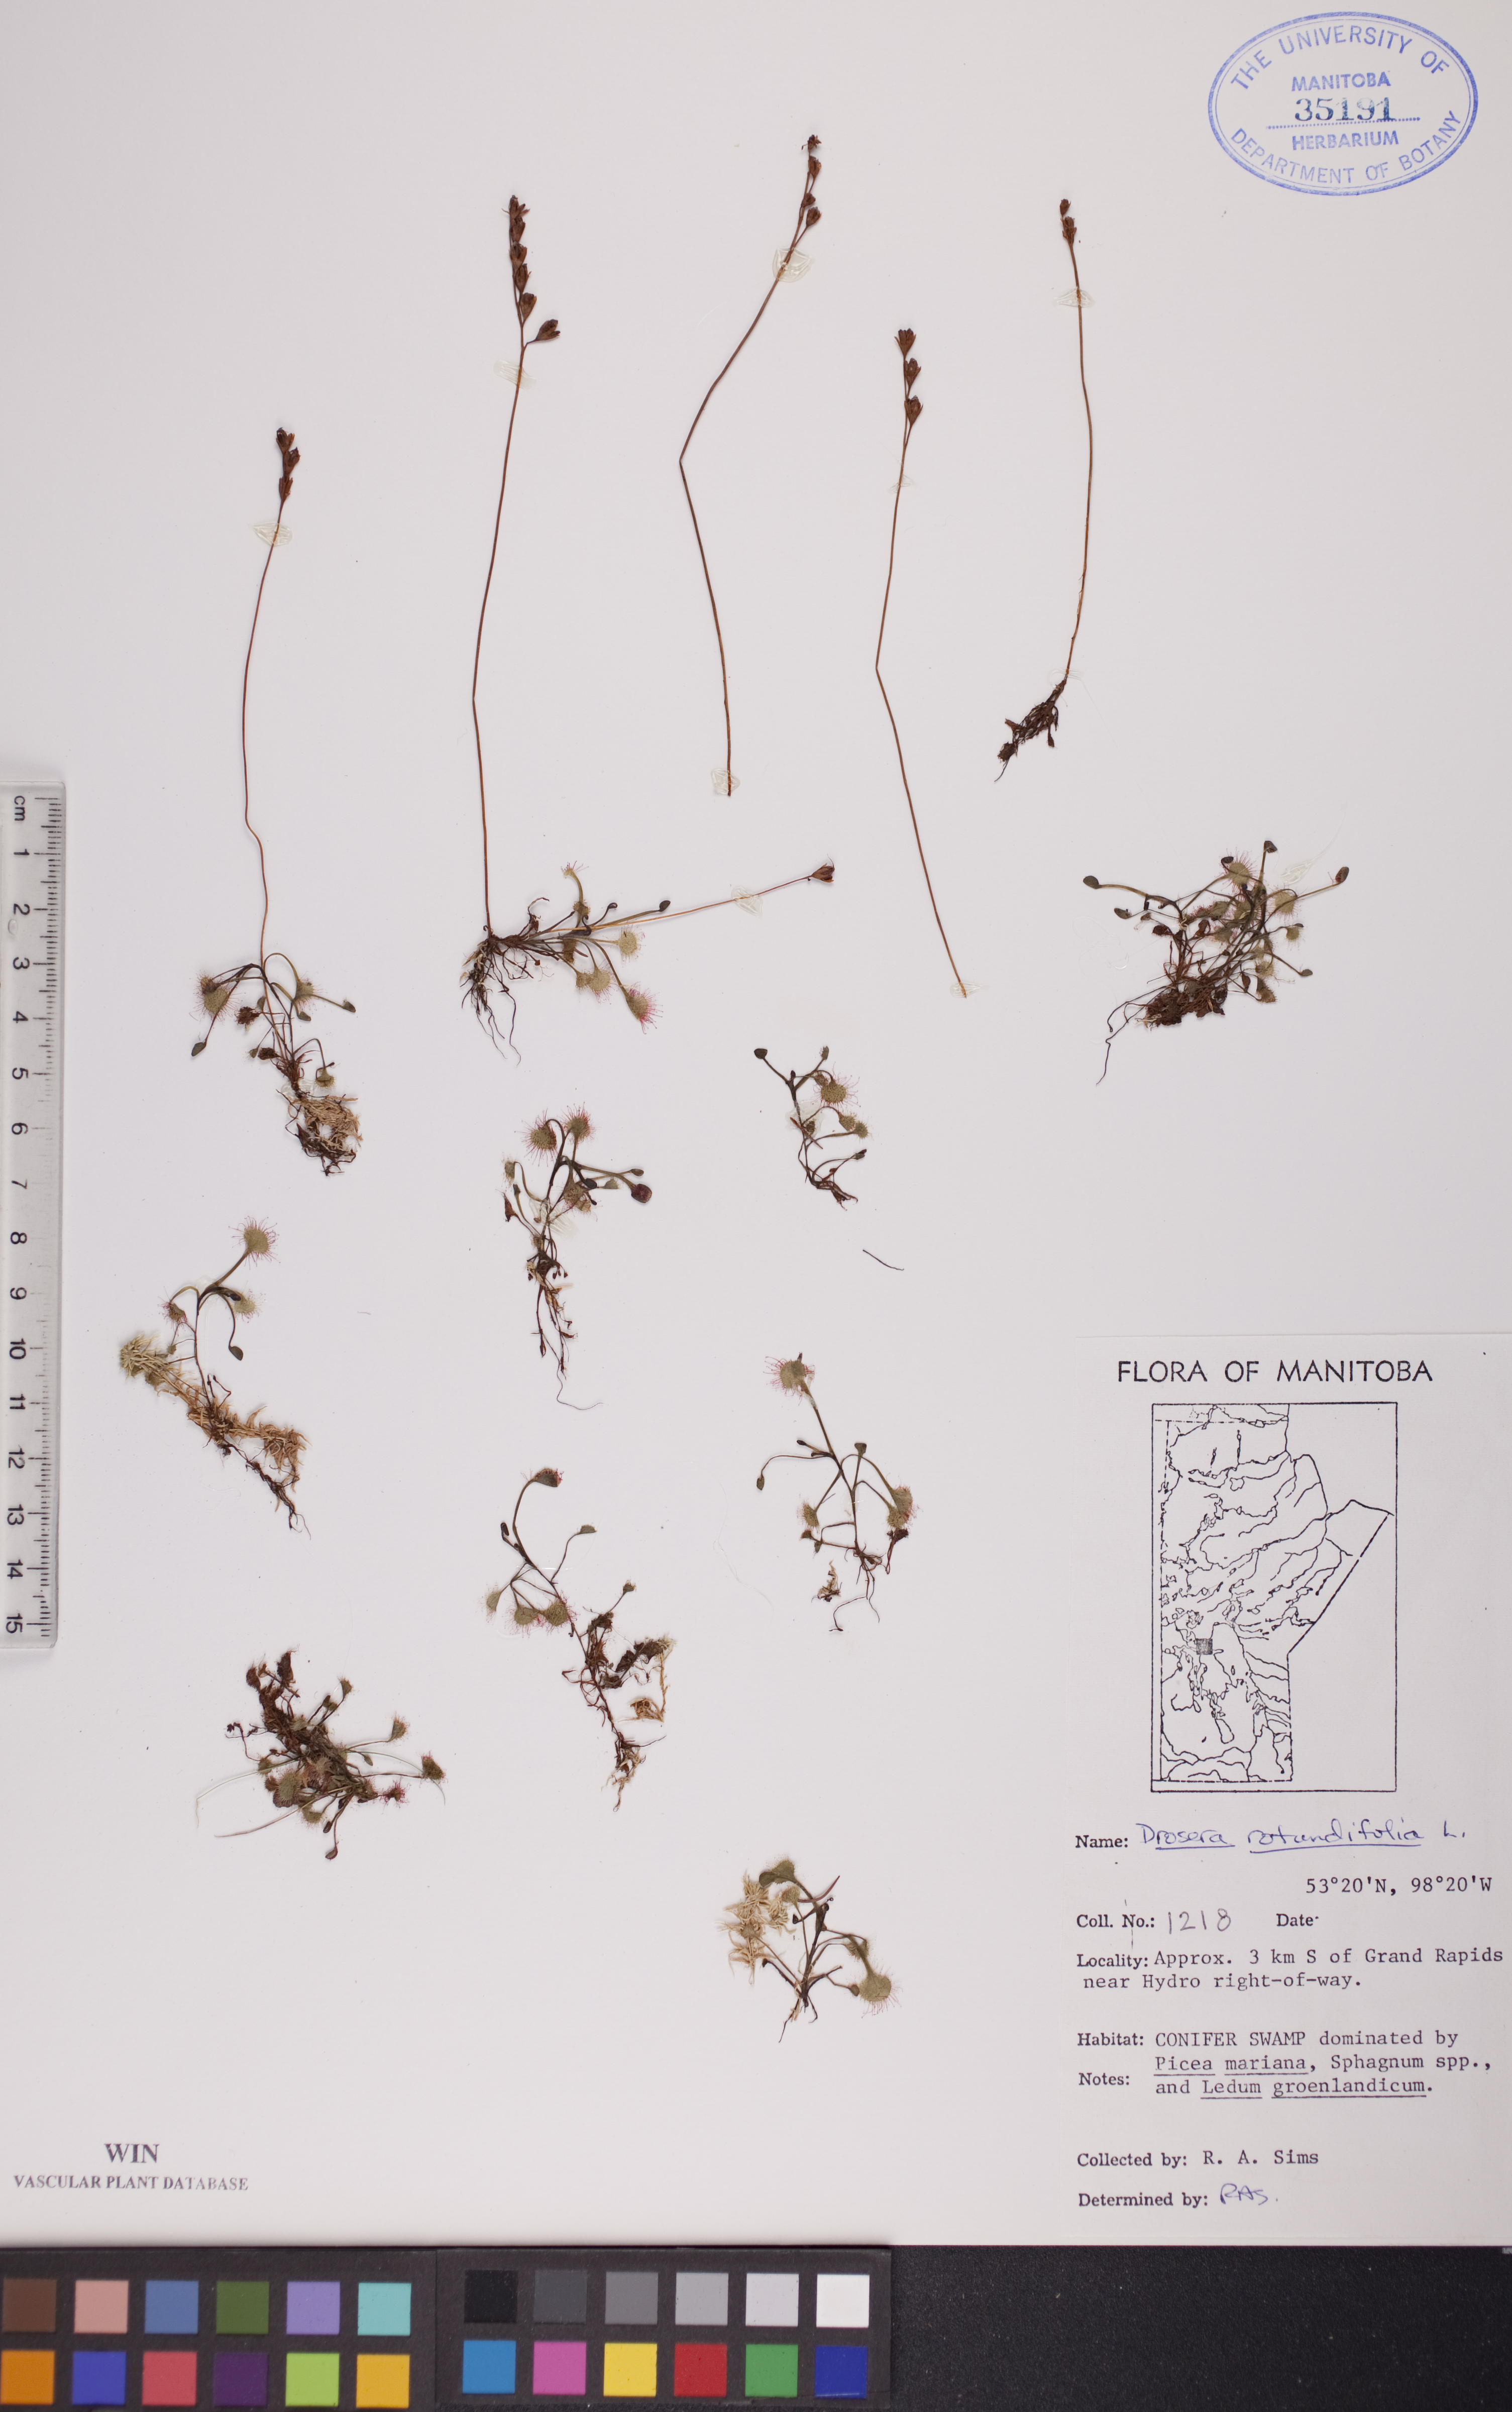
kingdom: Plantae
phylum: Tracheophyta
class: Magnoliopsida
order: Caryophyllales
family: Droseraceae
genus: Drosera
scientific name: Drosera rotundifolia
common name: Round-leaved sundew
